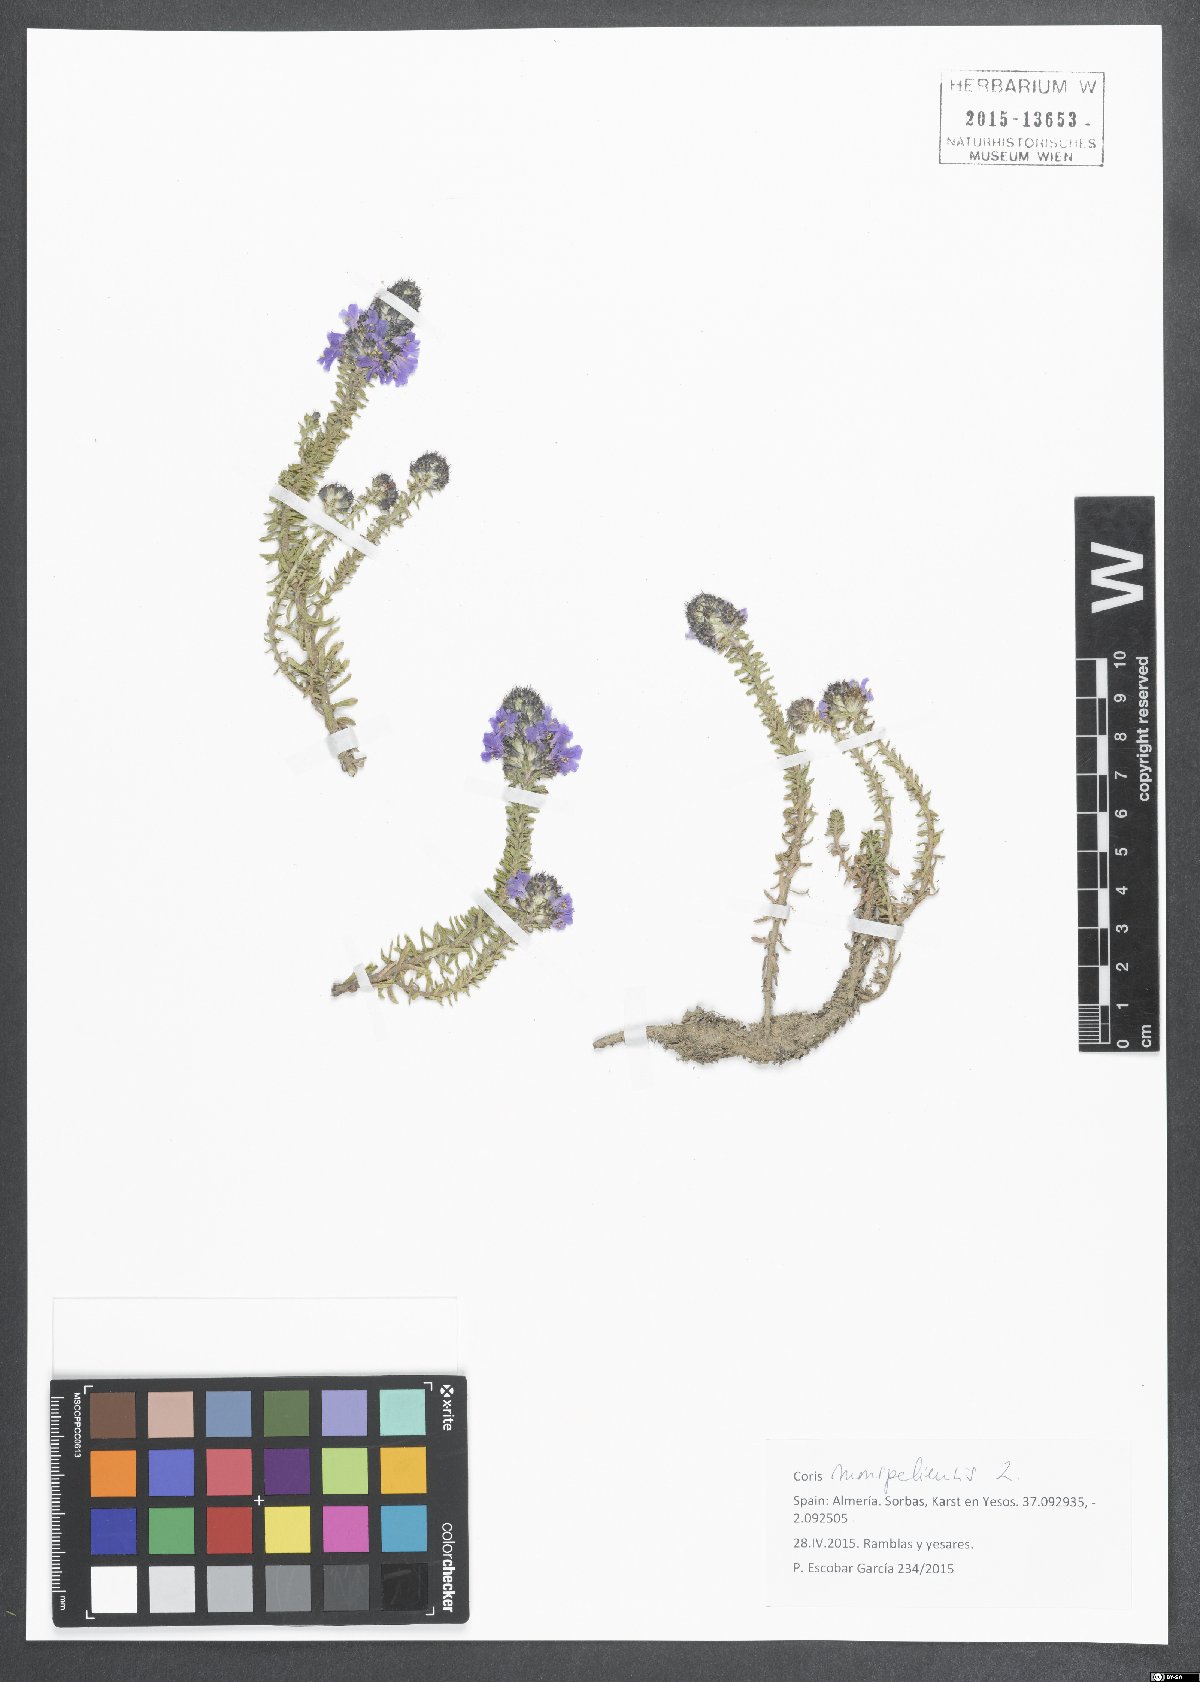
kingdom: Plantae
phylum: Tracheophyta
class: Magnoliopsida
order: Ericales
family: Primulaceae
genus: Coris
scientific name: Coris monspeliensis
